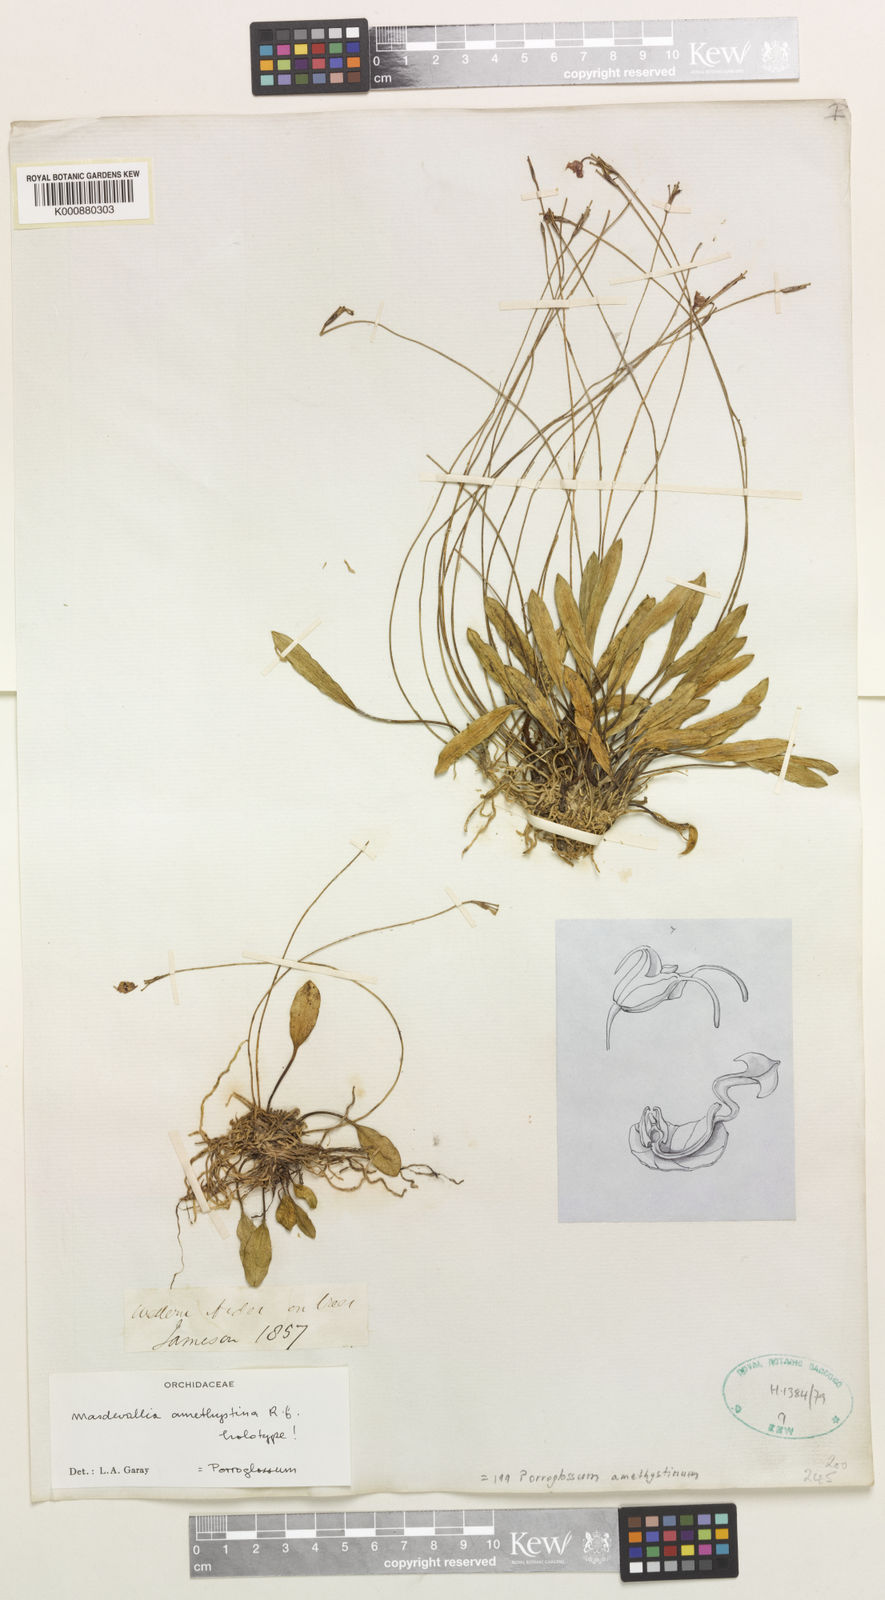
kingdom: Plantae
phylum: Tracheophyta
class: Liliopsida
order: Asparagales
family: Orchidaceae
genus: Porroglossum
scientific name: Porroglossum amethystinum
